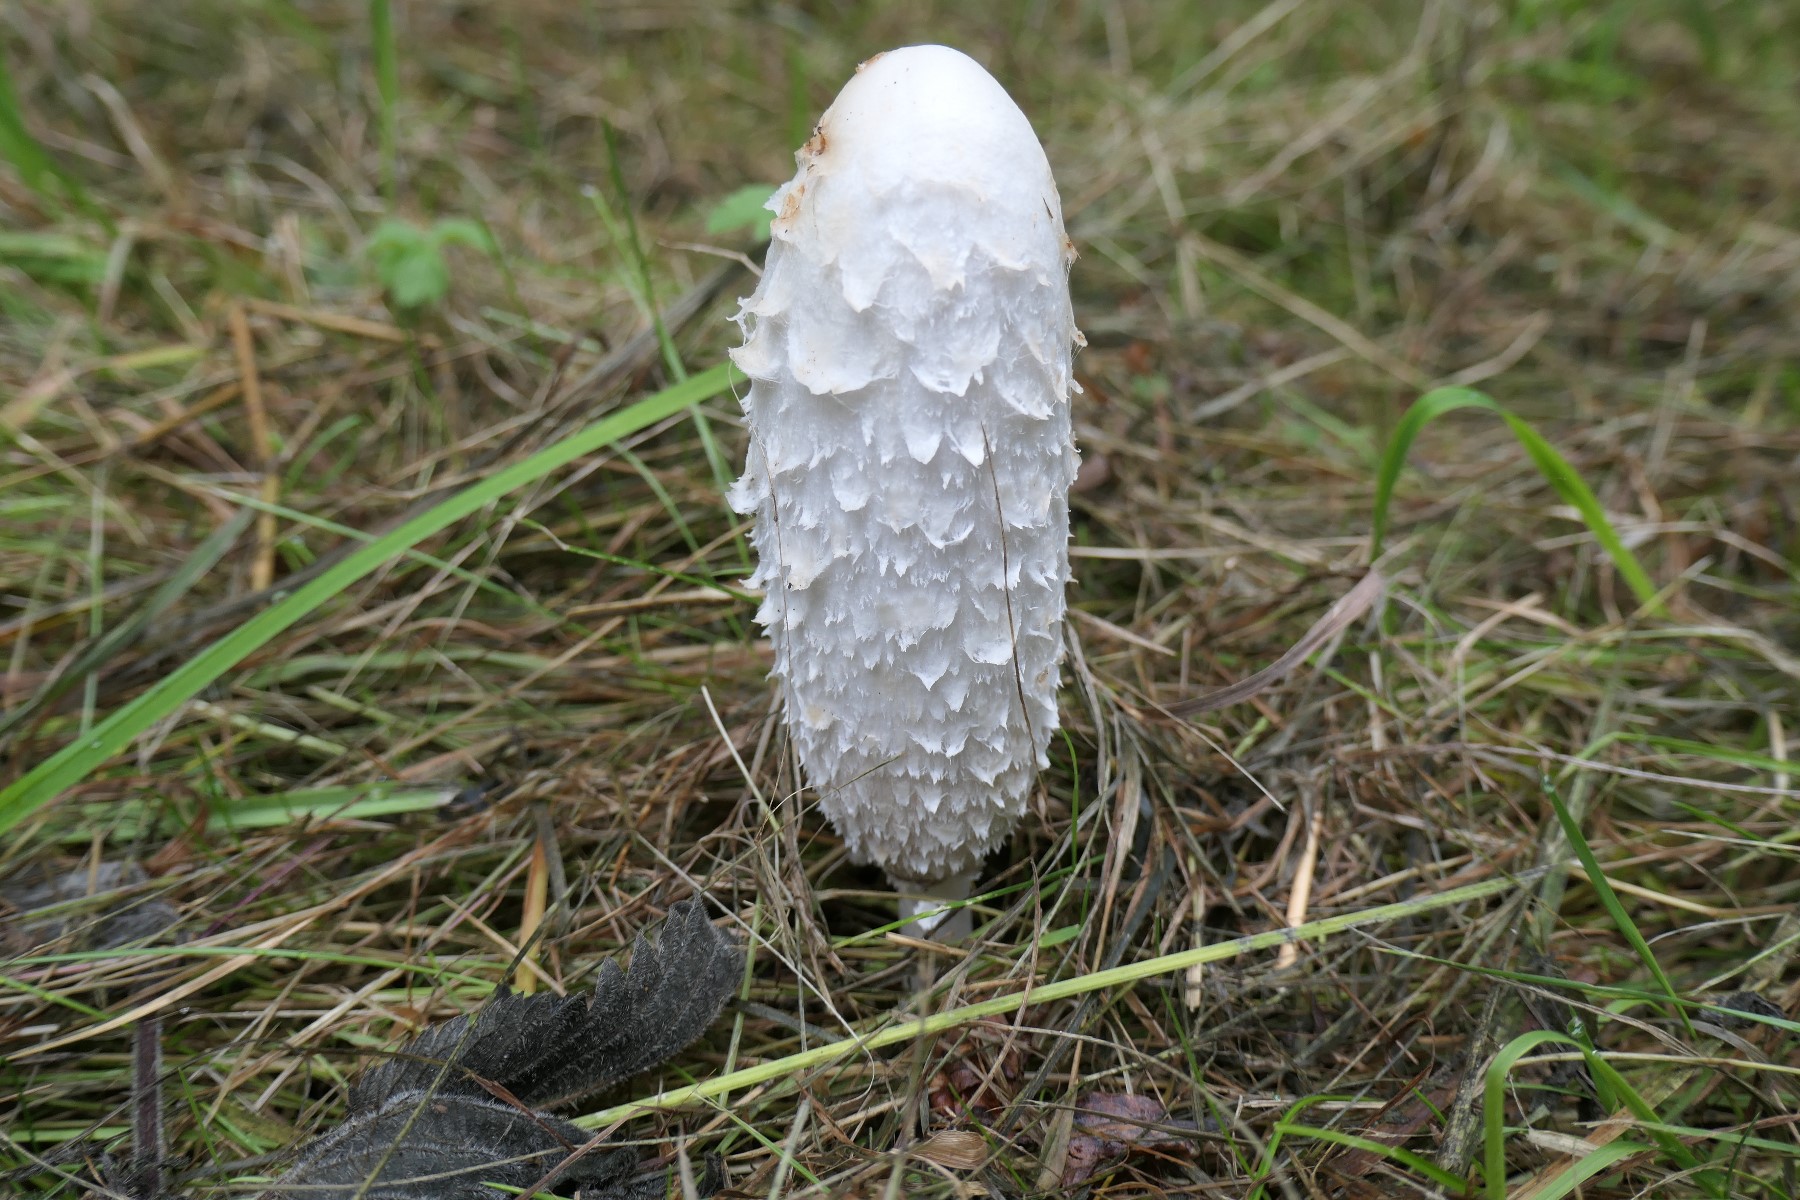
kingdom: Fungi
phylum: Basidiomycota
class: Agaricomycetes
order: Agaricales
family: Agaricaceae
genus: Coprinus
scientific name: Coprinus comatus
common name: stor parykhat
